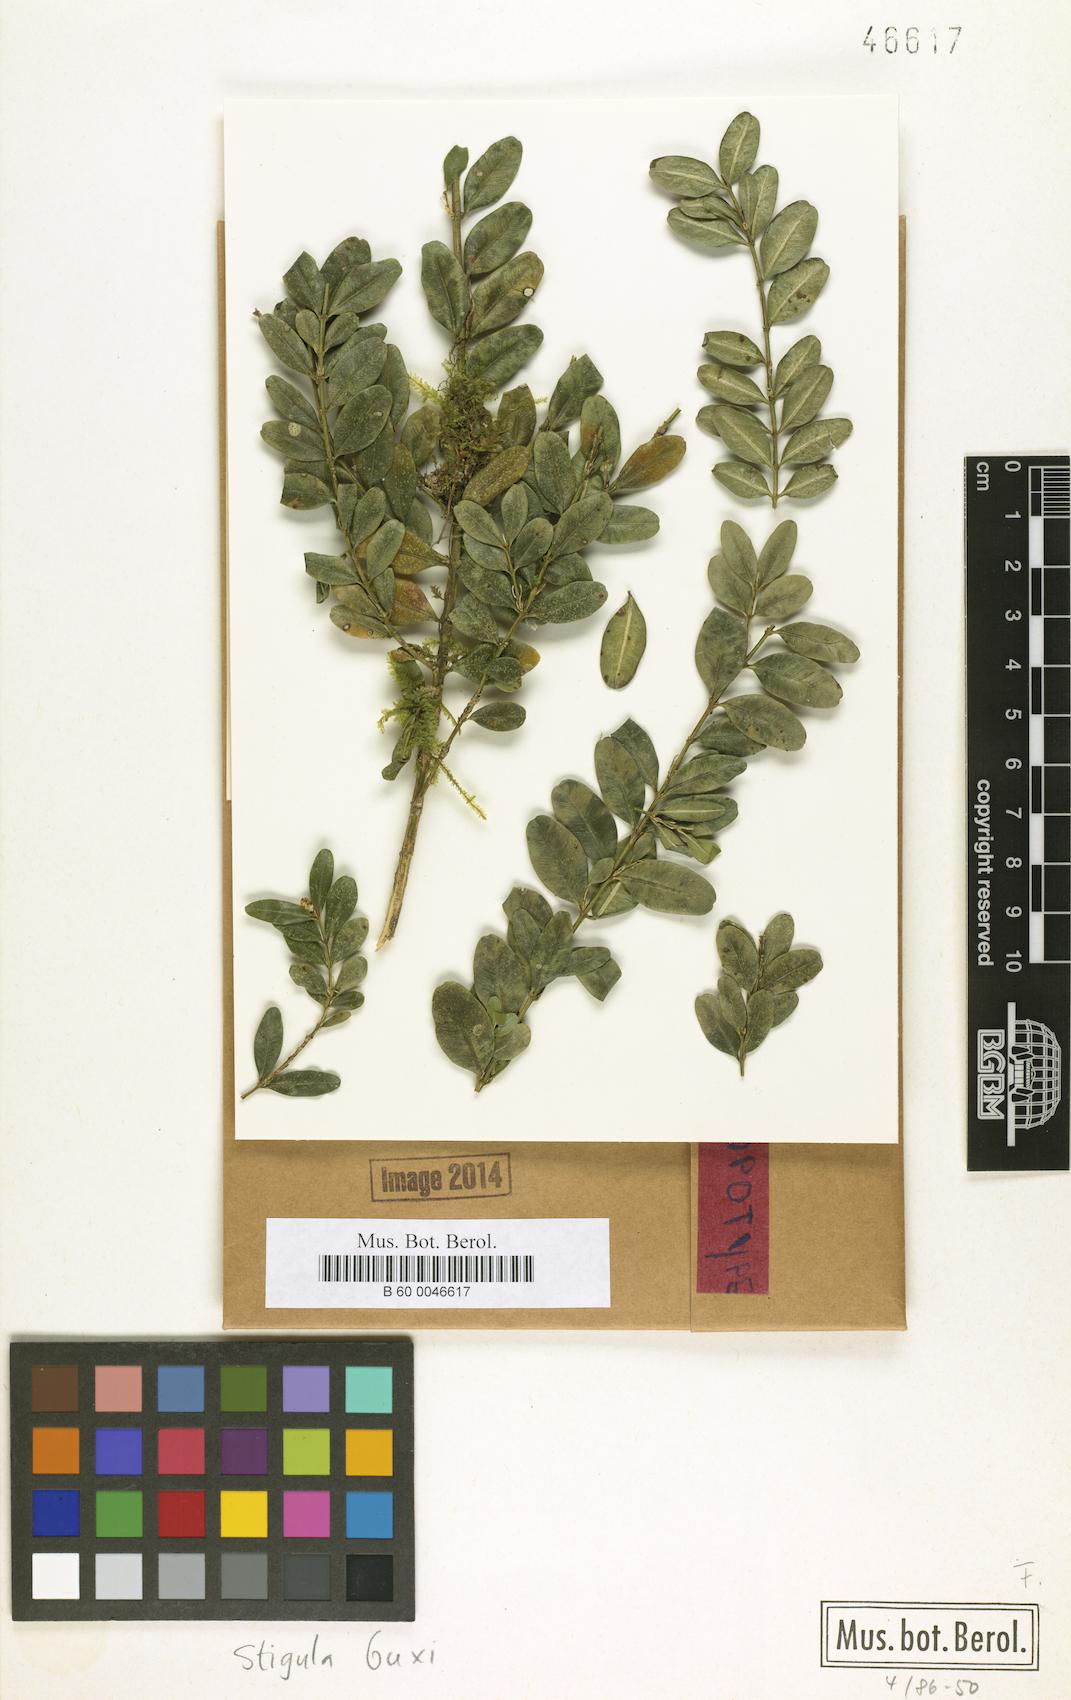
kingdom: Fungi
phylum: Ascomycota
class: Dothideomycetes
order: Strigulales
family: Strigulaceae
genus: Strigula
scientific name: Strigula buxi
